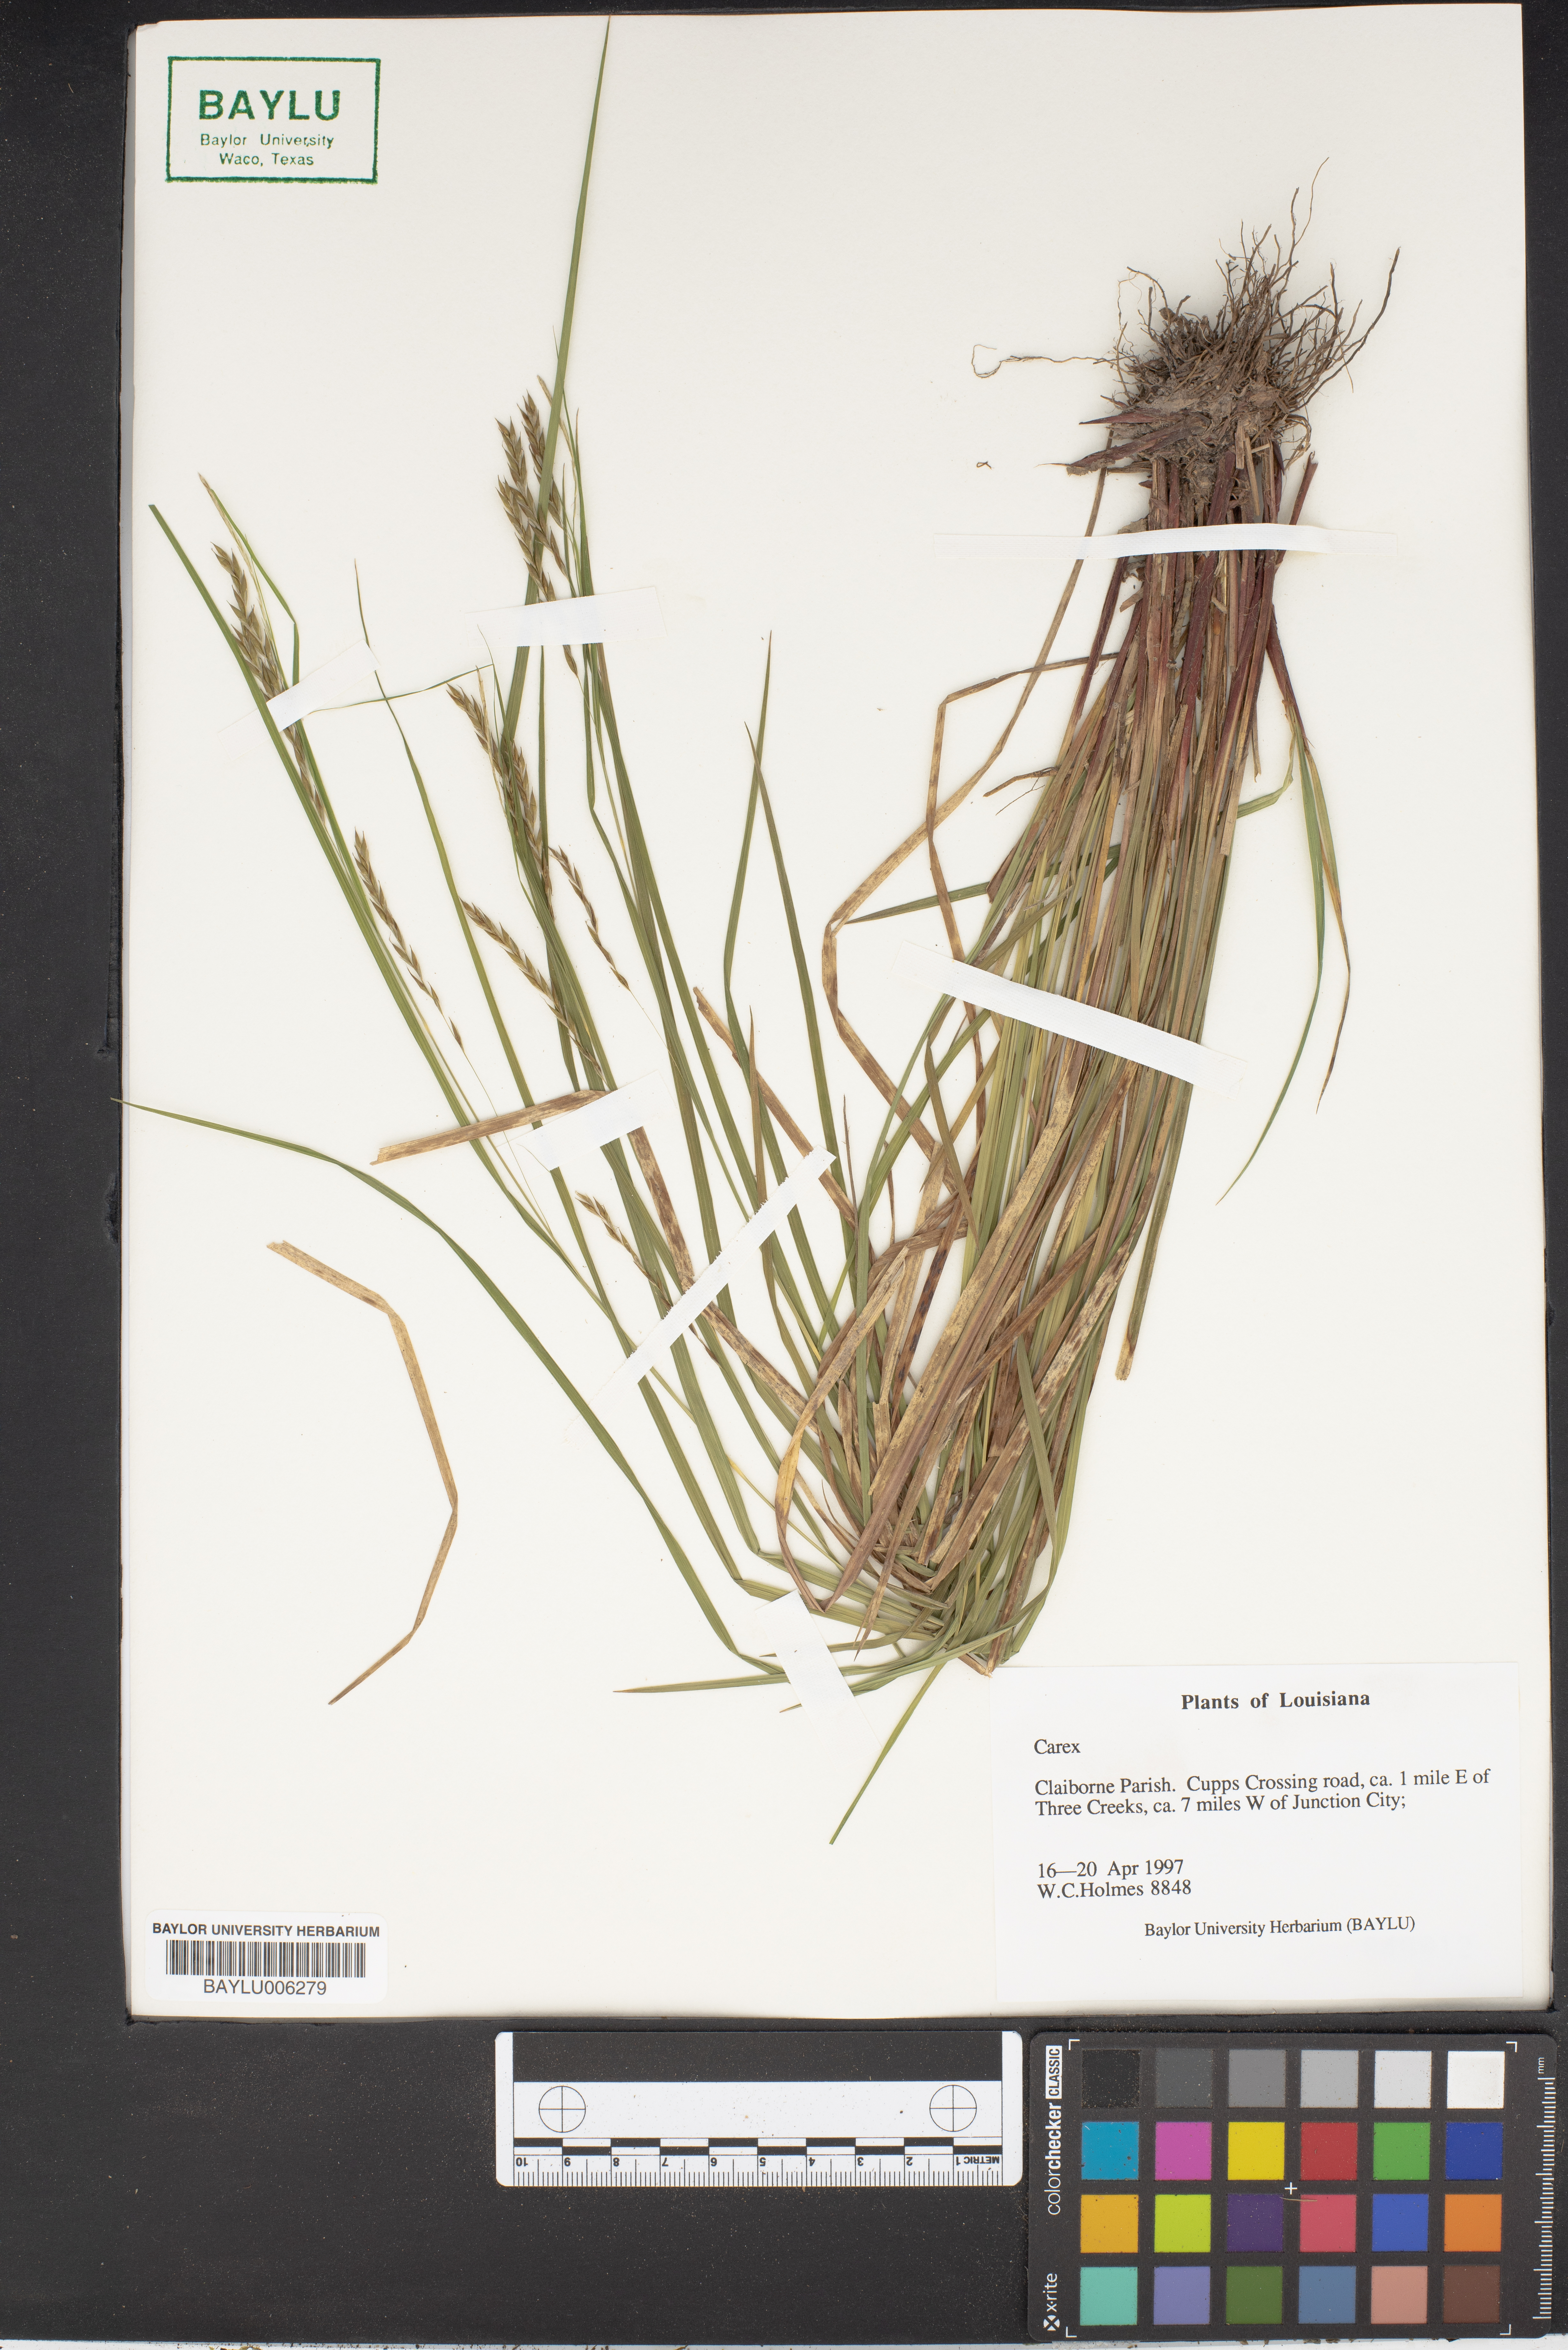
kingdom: Plantae
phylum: Tracheophyta
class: Liliopsida
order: Poales
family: Cyperaceae
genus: Carex
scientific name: Carex
